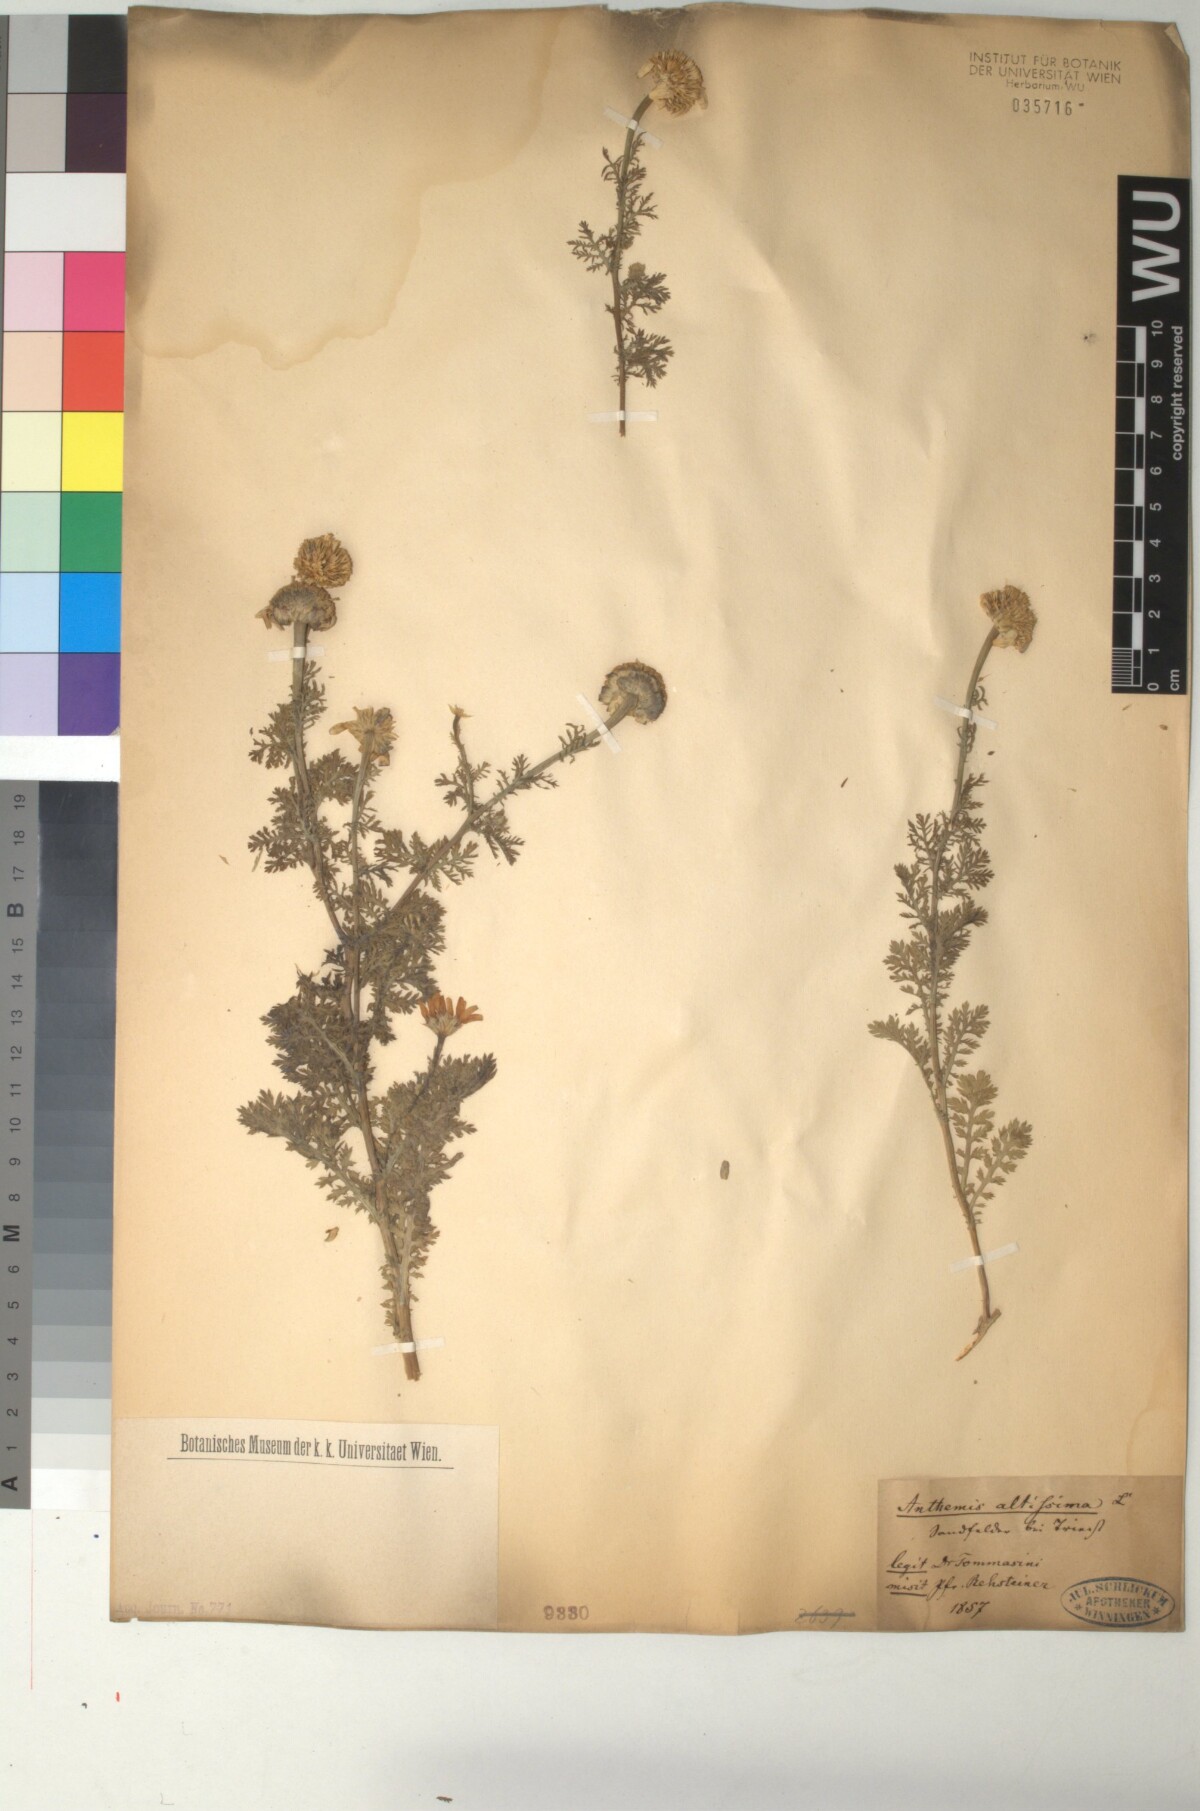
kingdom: Plantae
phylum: Tracheophyta
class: Magnoliopsida
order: Asterales
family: Asteraceae
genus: Cota
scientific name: Cota altissima
